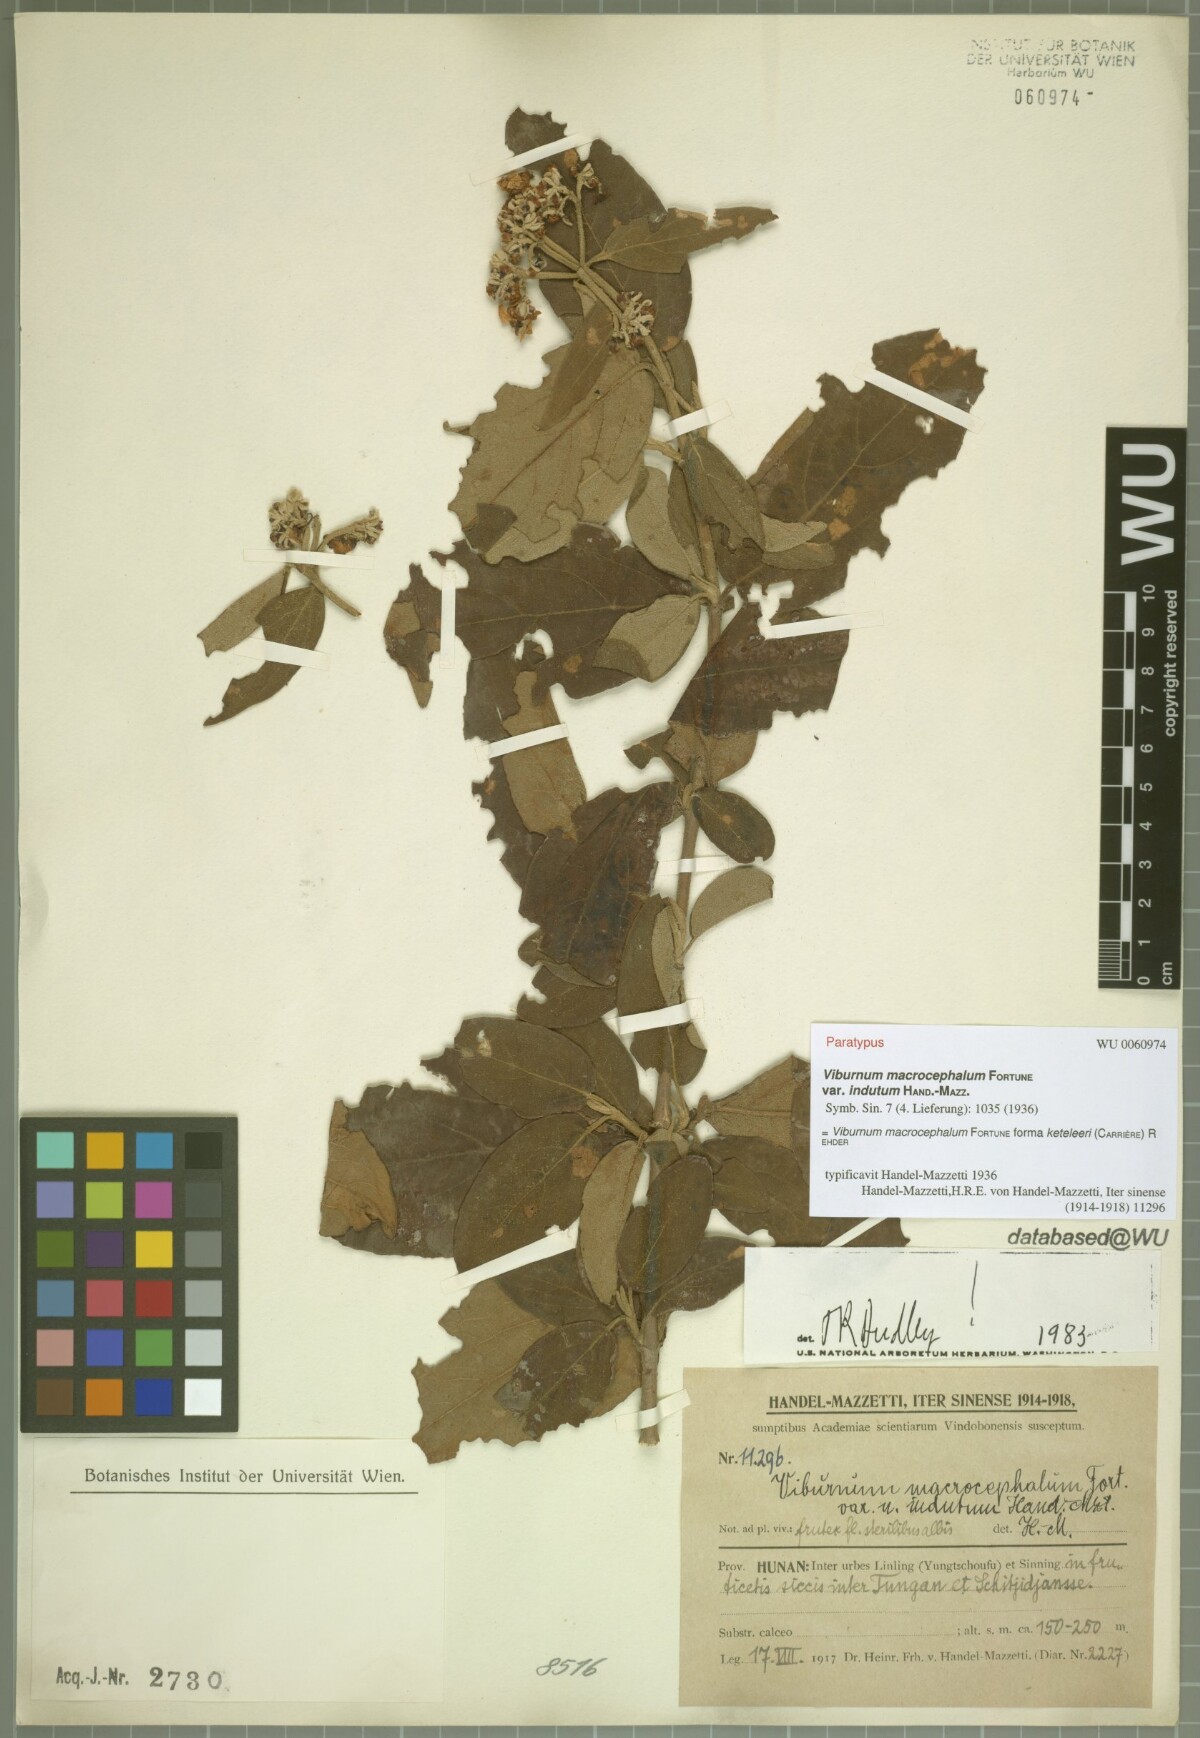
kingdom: Plantae
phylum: Tracheophyta
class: Magnoliopsida
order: Dipsacales
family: Viburnaceae
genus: Viburnum
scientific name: Viburnum macrocephalum
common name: Chinese snowball viburnum
